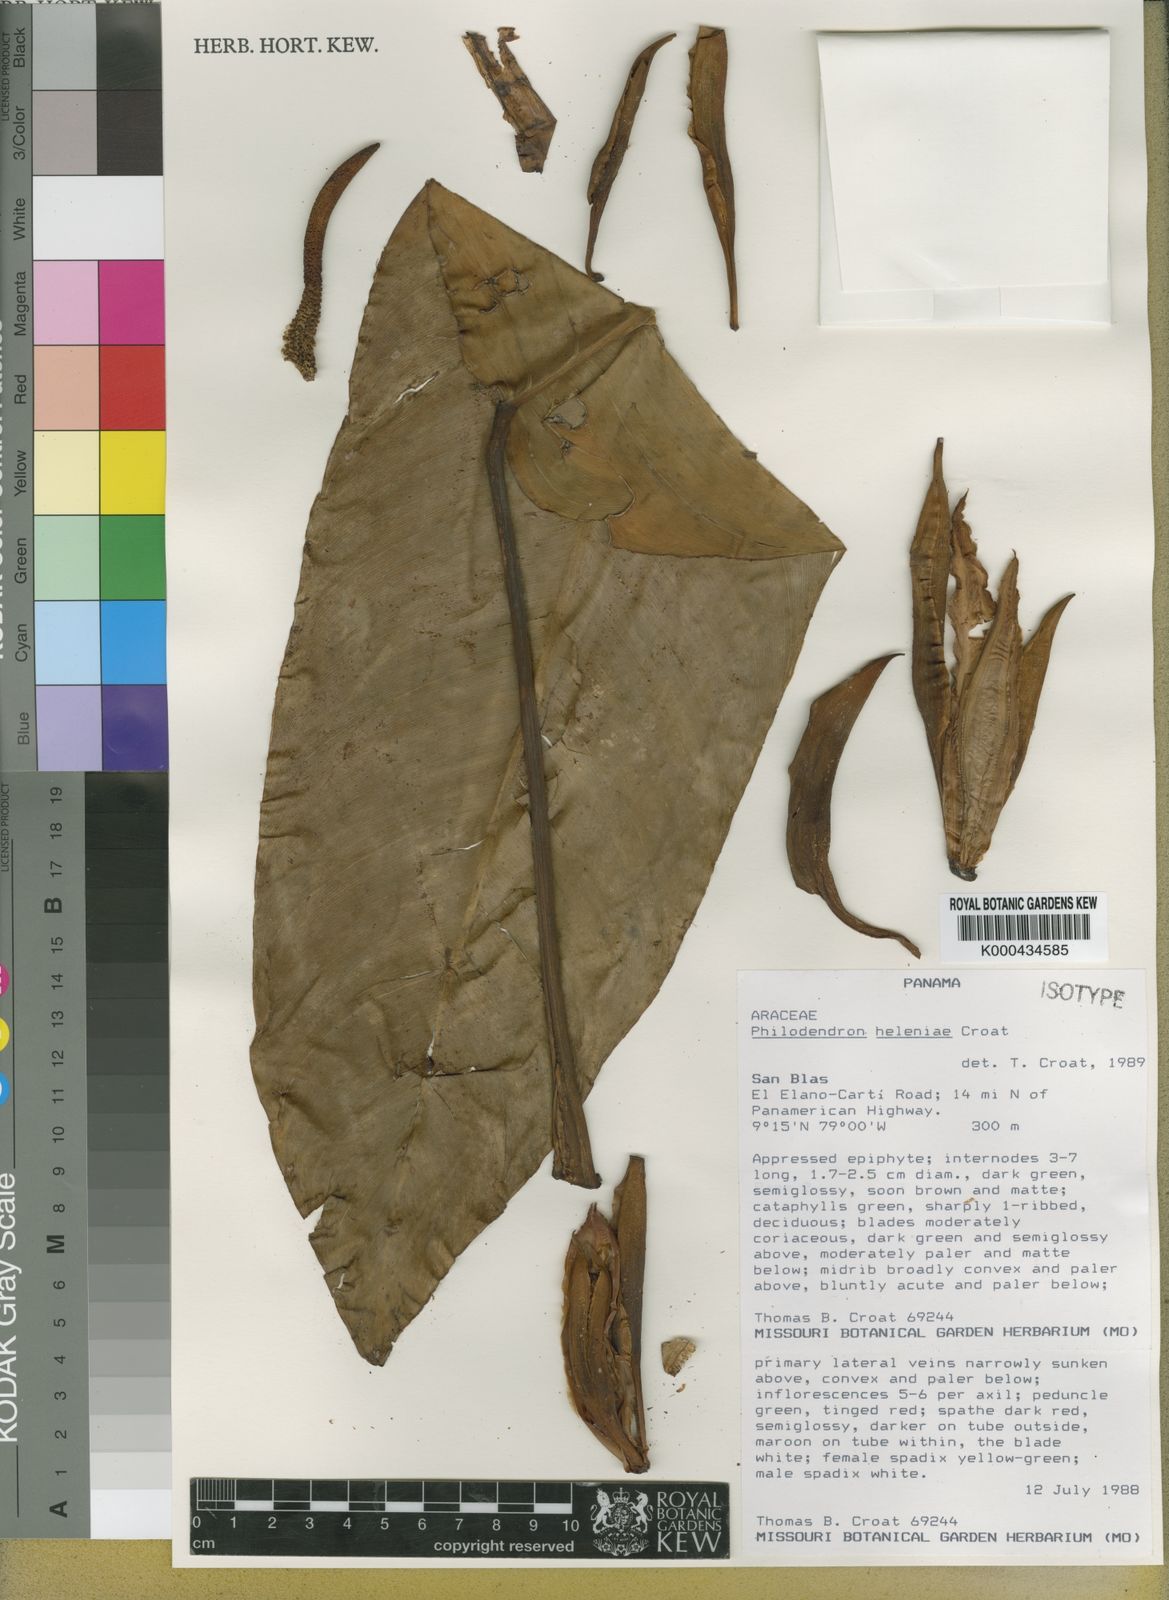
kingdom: Plantae
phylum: Tracheophyta
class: Liliopsida
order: Alismatales
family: Araceae
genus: Philodendron
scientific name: Philodendron heleniae
